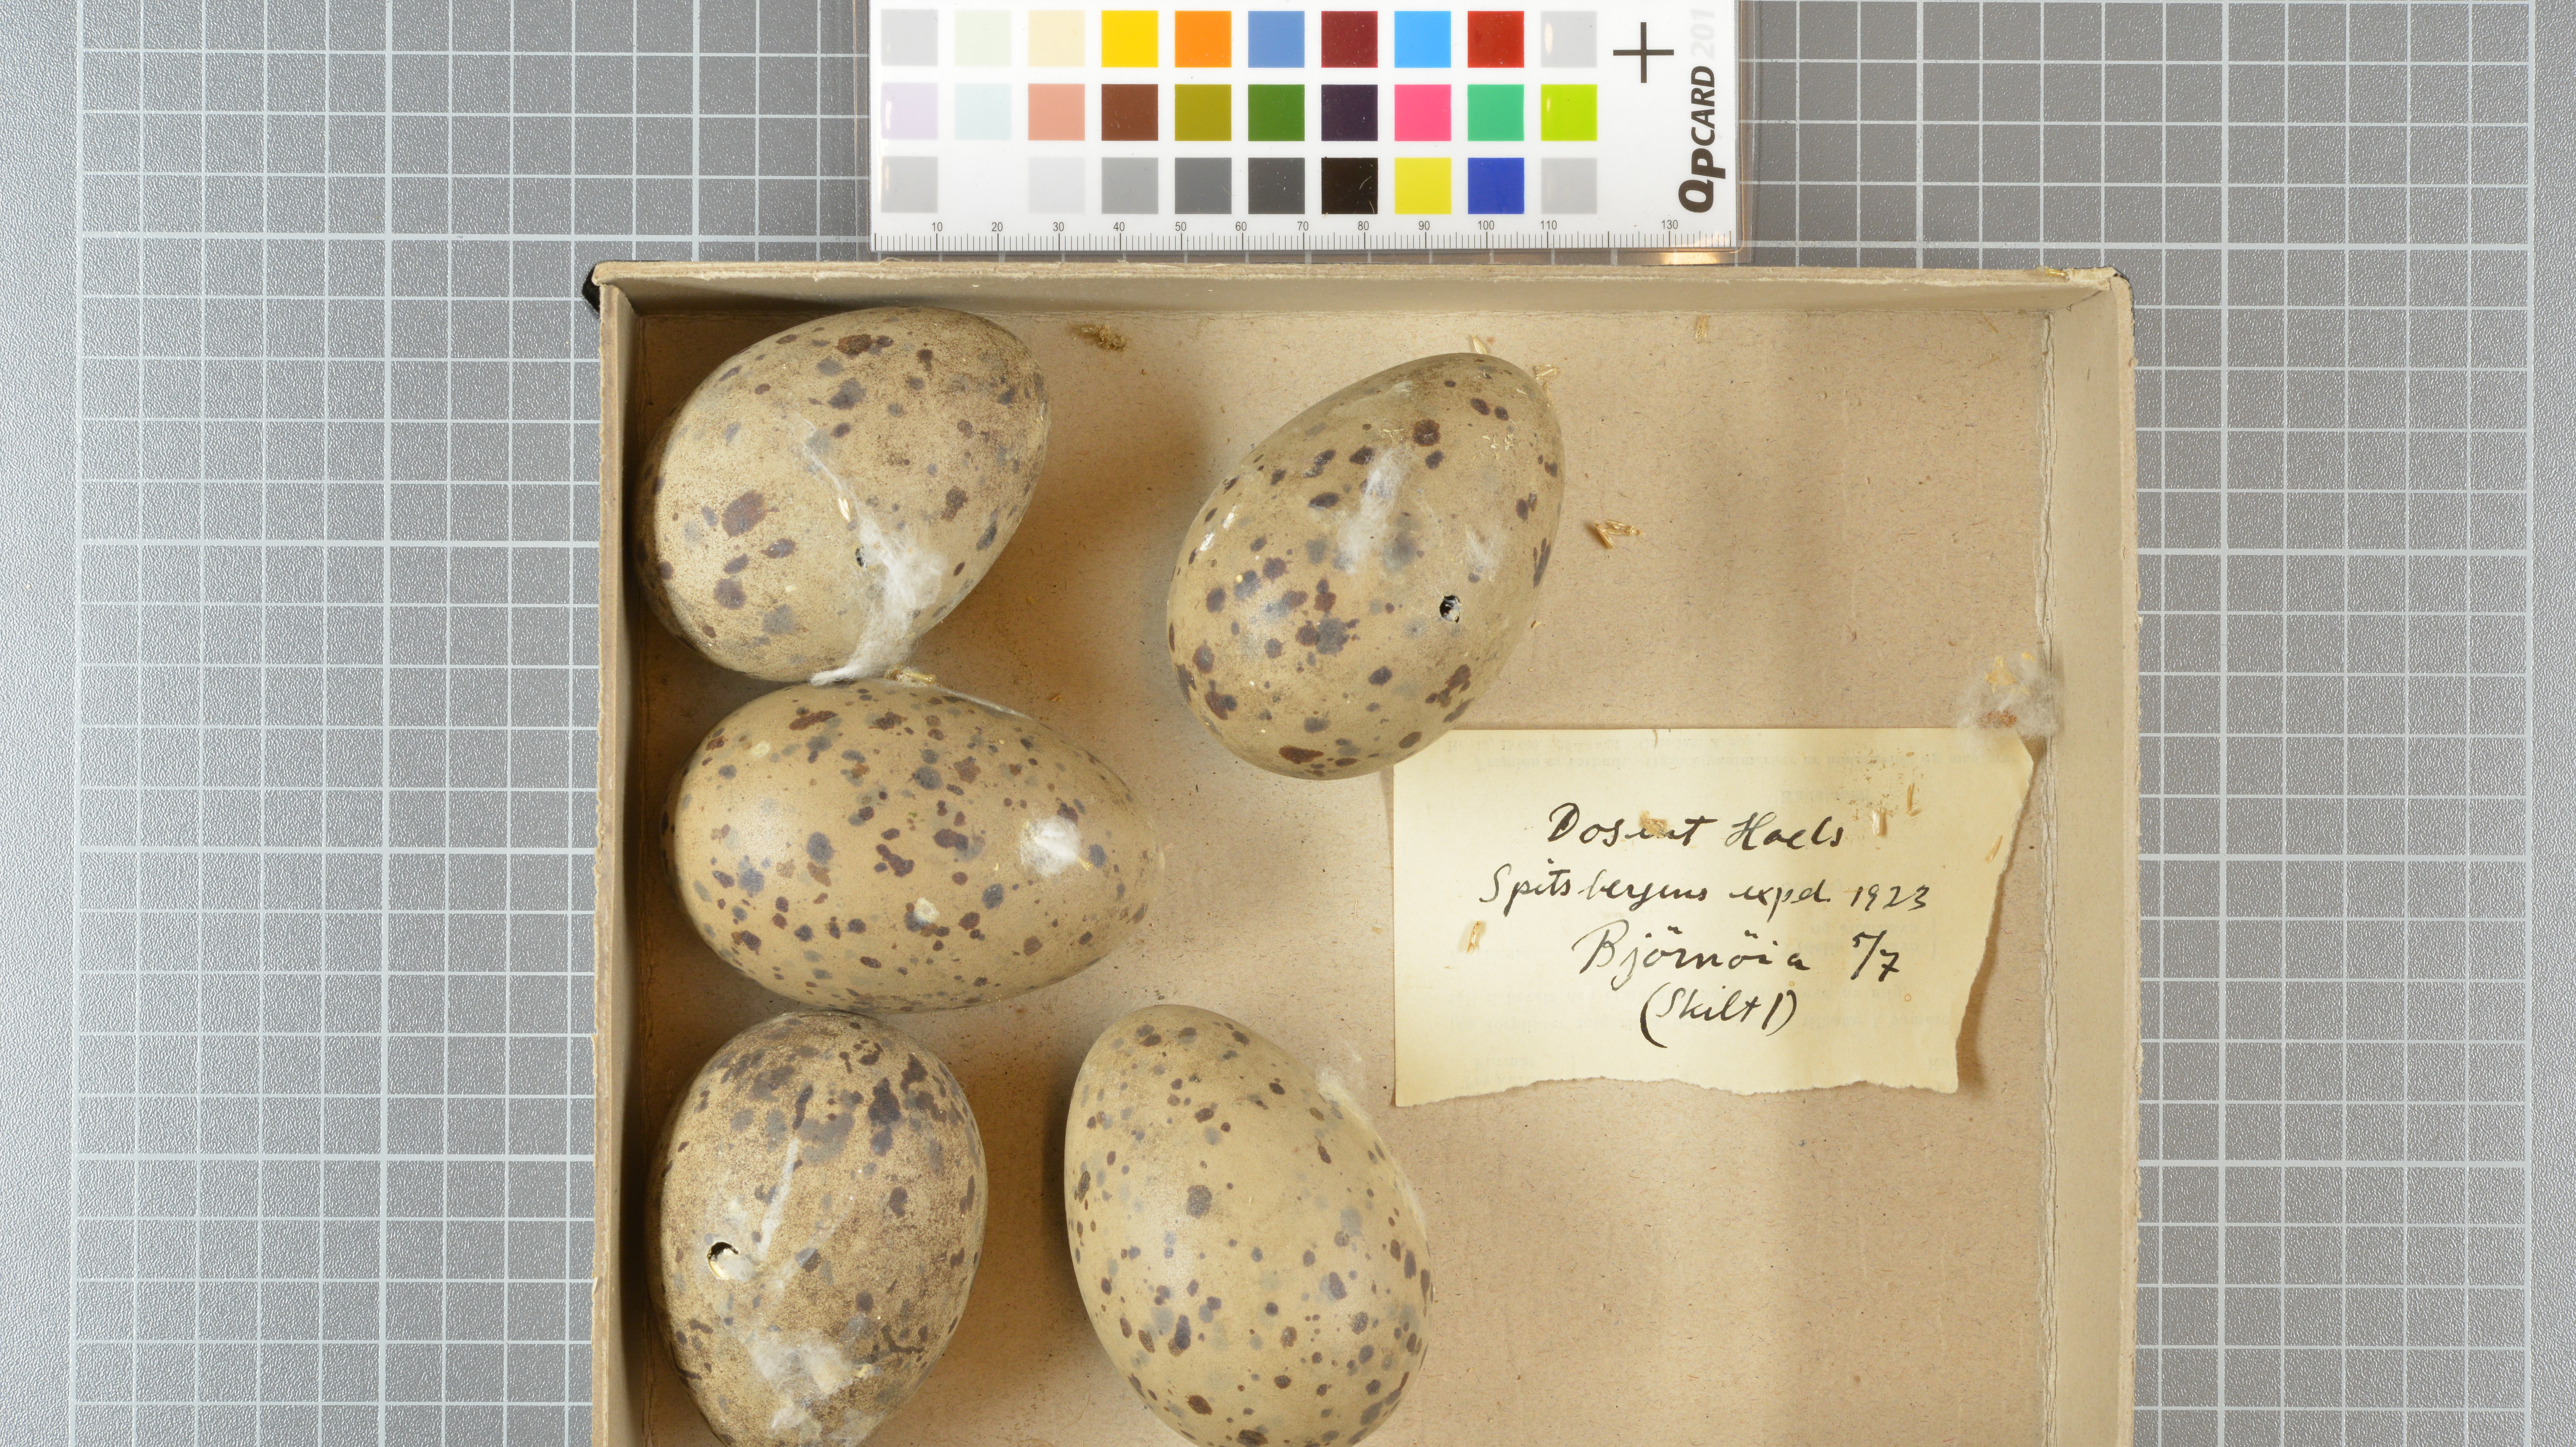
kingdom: Animalia
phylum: Chordata
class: Aves
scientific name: Aves
